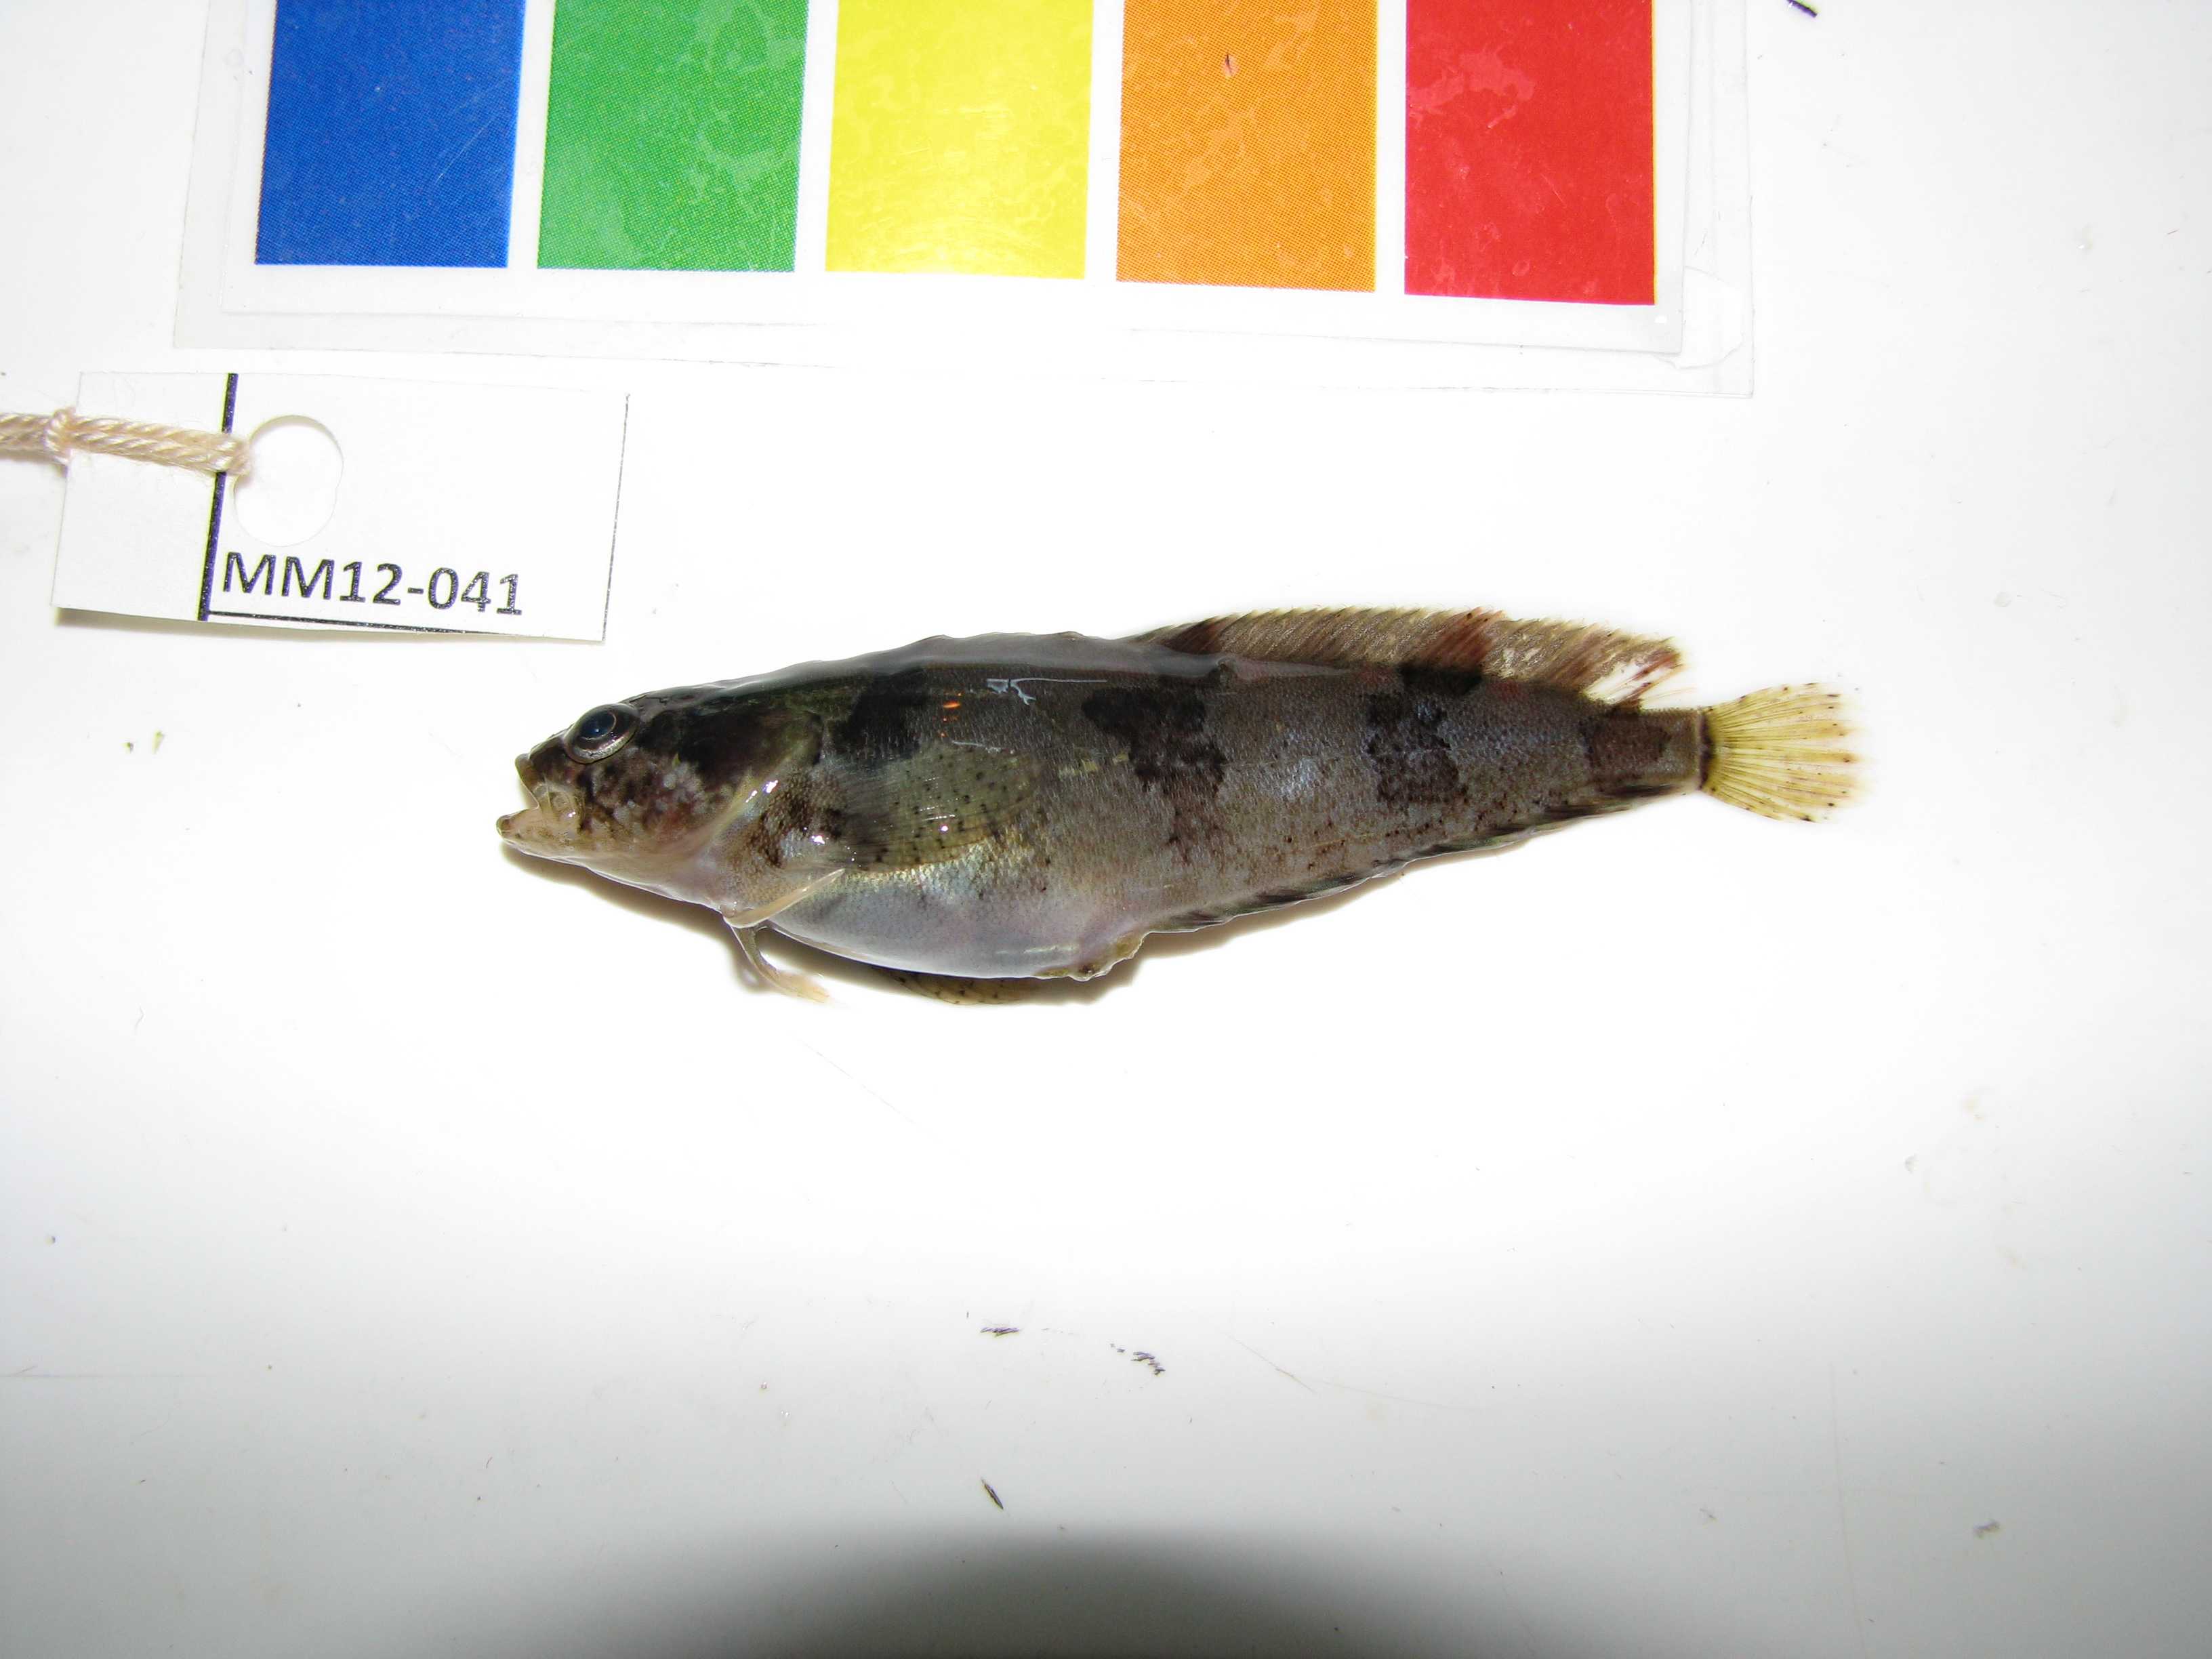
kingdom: Animalia
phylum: Chordata
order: Perciformes
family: Clinidae
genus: Clinus
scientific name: Clinus agilis
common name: Agile klipfish
